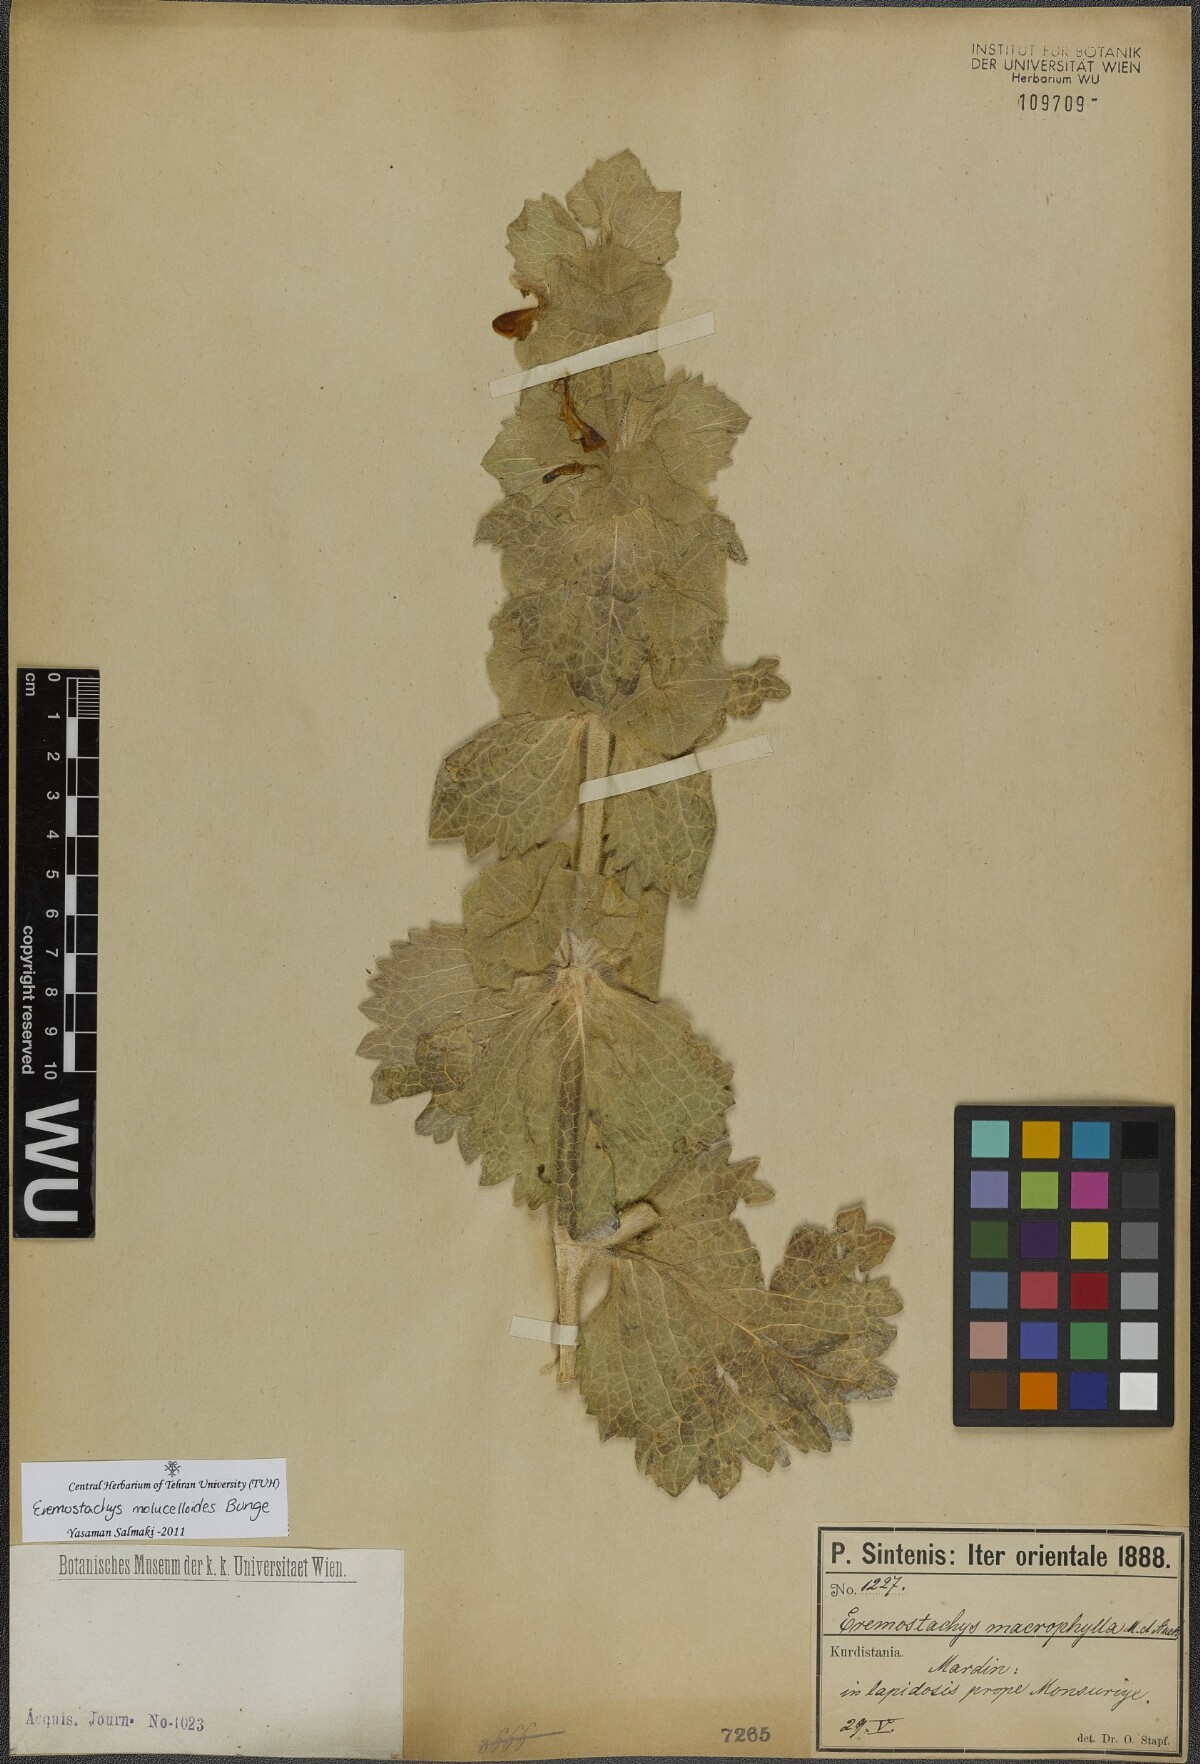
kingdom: Plantae
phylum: Tracheophyta
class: Magnoliopsida
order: Lamiales
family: Lamiaceae
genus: Phlomoides
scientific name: Phlomoides molucelloides
